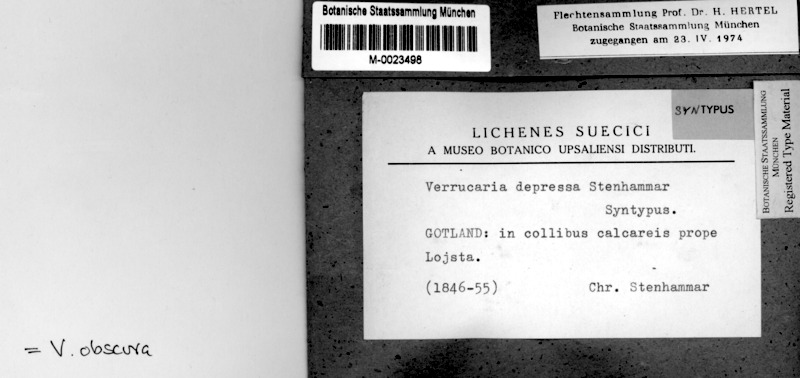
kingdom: Fungi
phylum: Ascomycota
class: Eurotiomycetes
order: Verrucariales
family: Verrucariaceae
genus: Verrucaria
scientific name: Verrucaria obscura
